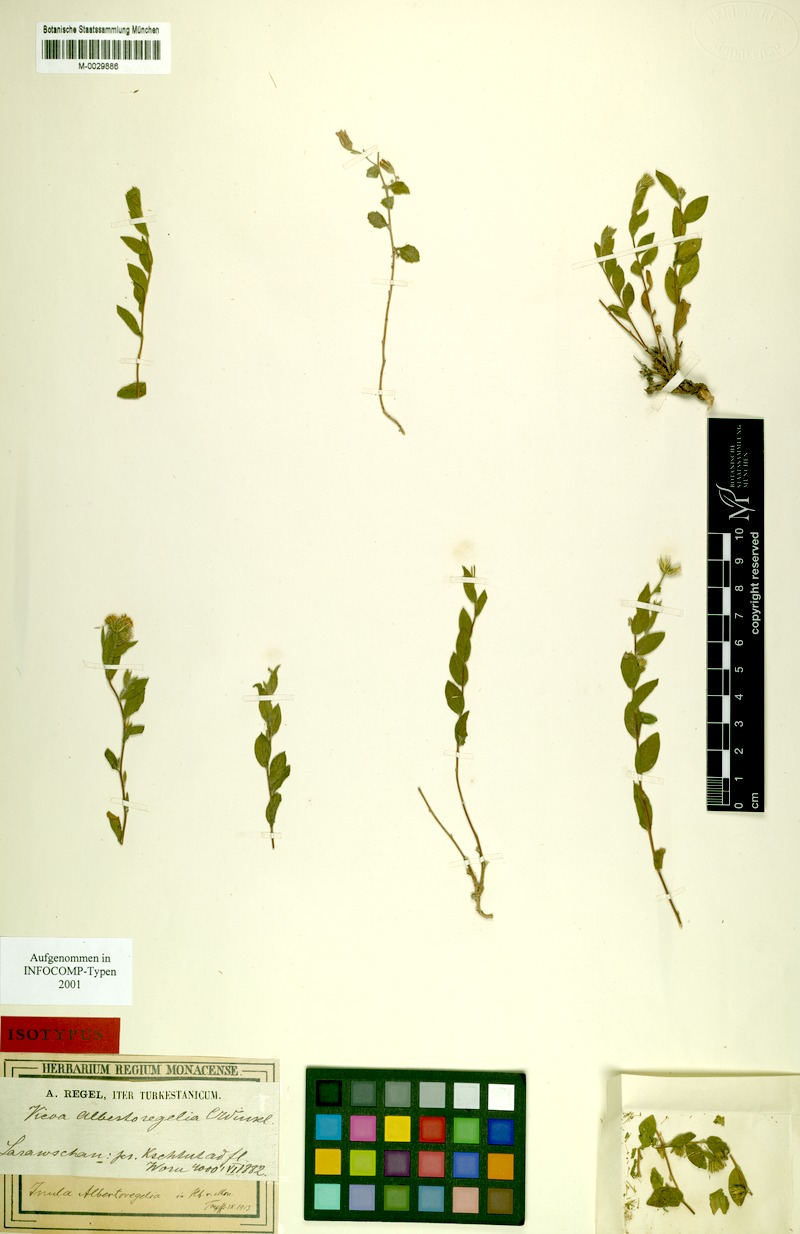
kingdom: Plantae
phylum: Tracheophyta
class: Magnoliopsida
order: Asterales
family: Asteraceae
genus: Vicoa
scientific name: Vicoa albertoregelia
